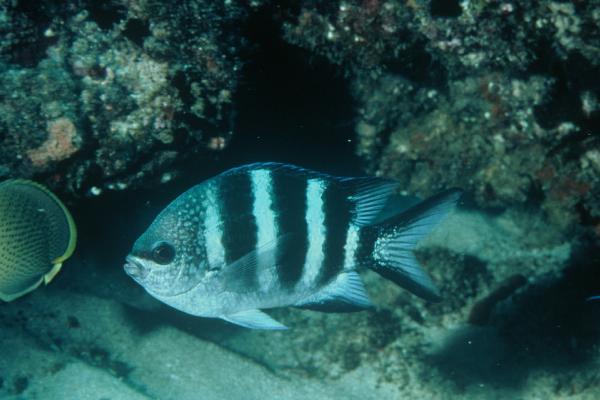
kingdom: Animalia
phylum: Chordata
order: Perciformes
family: Pomacentridae
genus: Abudefduf
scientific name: Abudefduf sexfasciatus
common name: Scissortail sergeant
